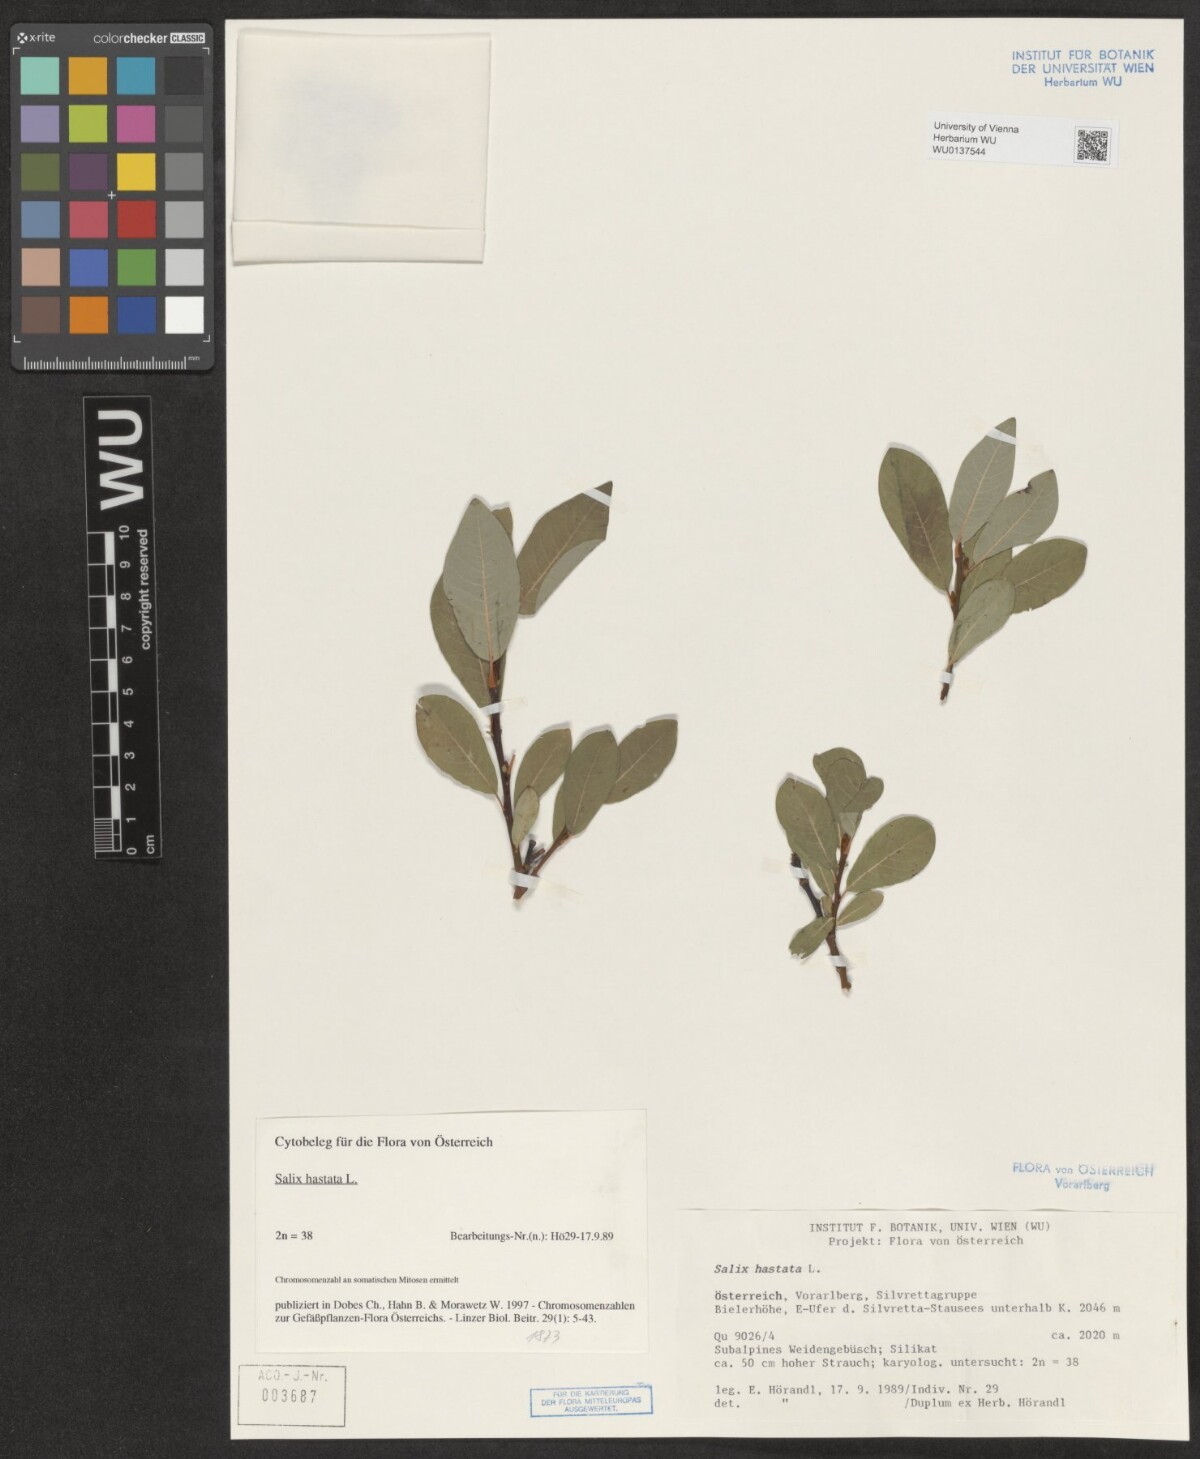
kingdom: Plantae
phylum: Tracheophyta
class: Magnoliopsida
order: Malpighiales
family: Salicaceae
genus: Salix
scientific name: Salix hastata
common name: Halberd willow
